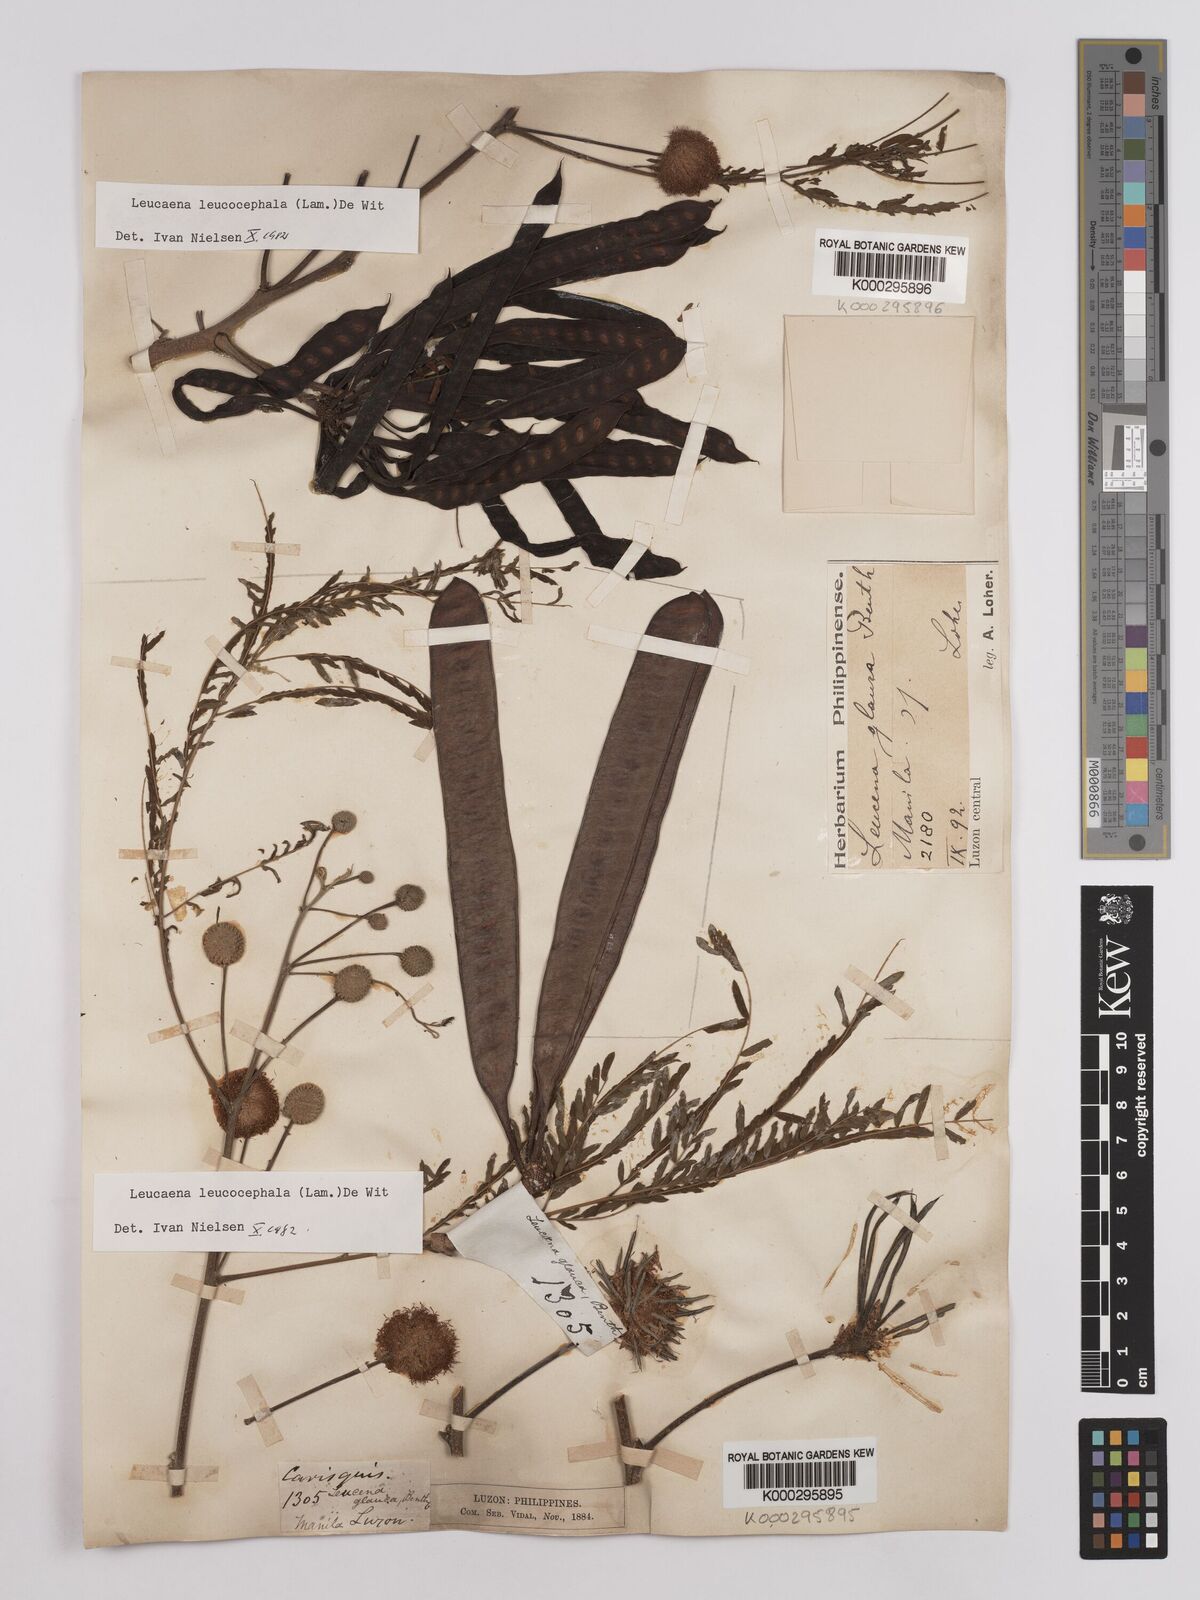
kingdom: Plantae
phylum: Tracheophyta
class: Magnoliopsida
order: Fabales
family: Fabaceae
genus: Leucaena
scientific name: Leucaena leucocephala
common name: White leadtree
